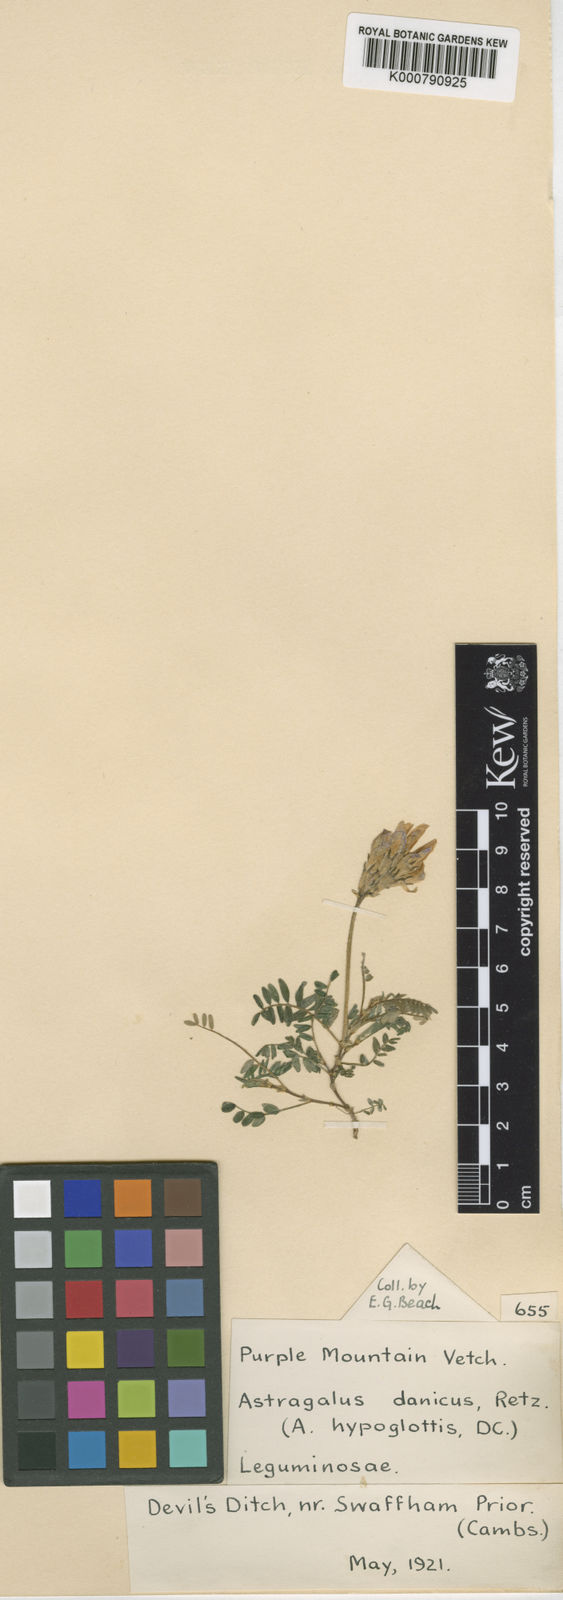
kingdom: Plantae
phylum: Tracheophyta
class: Magnoliopsida
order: Fabales
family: Fabaceae
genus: Astragalus
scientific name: Astragalus danicus
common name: Purple milk-vetch
